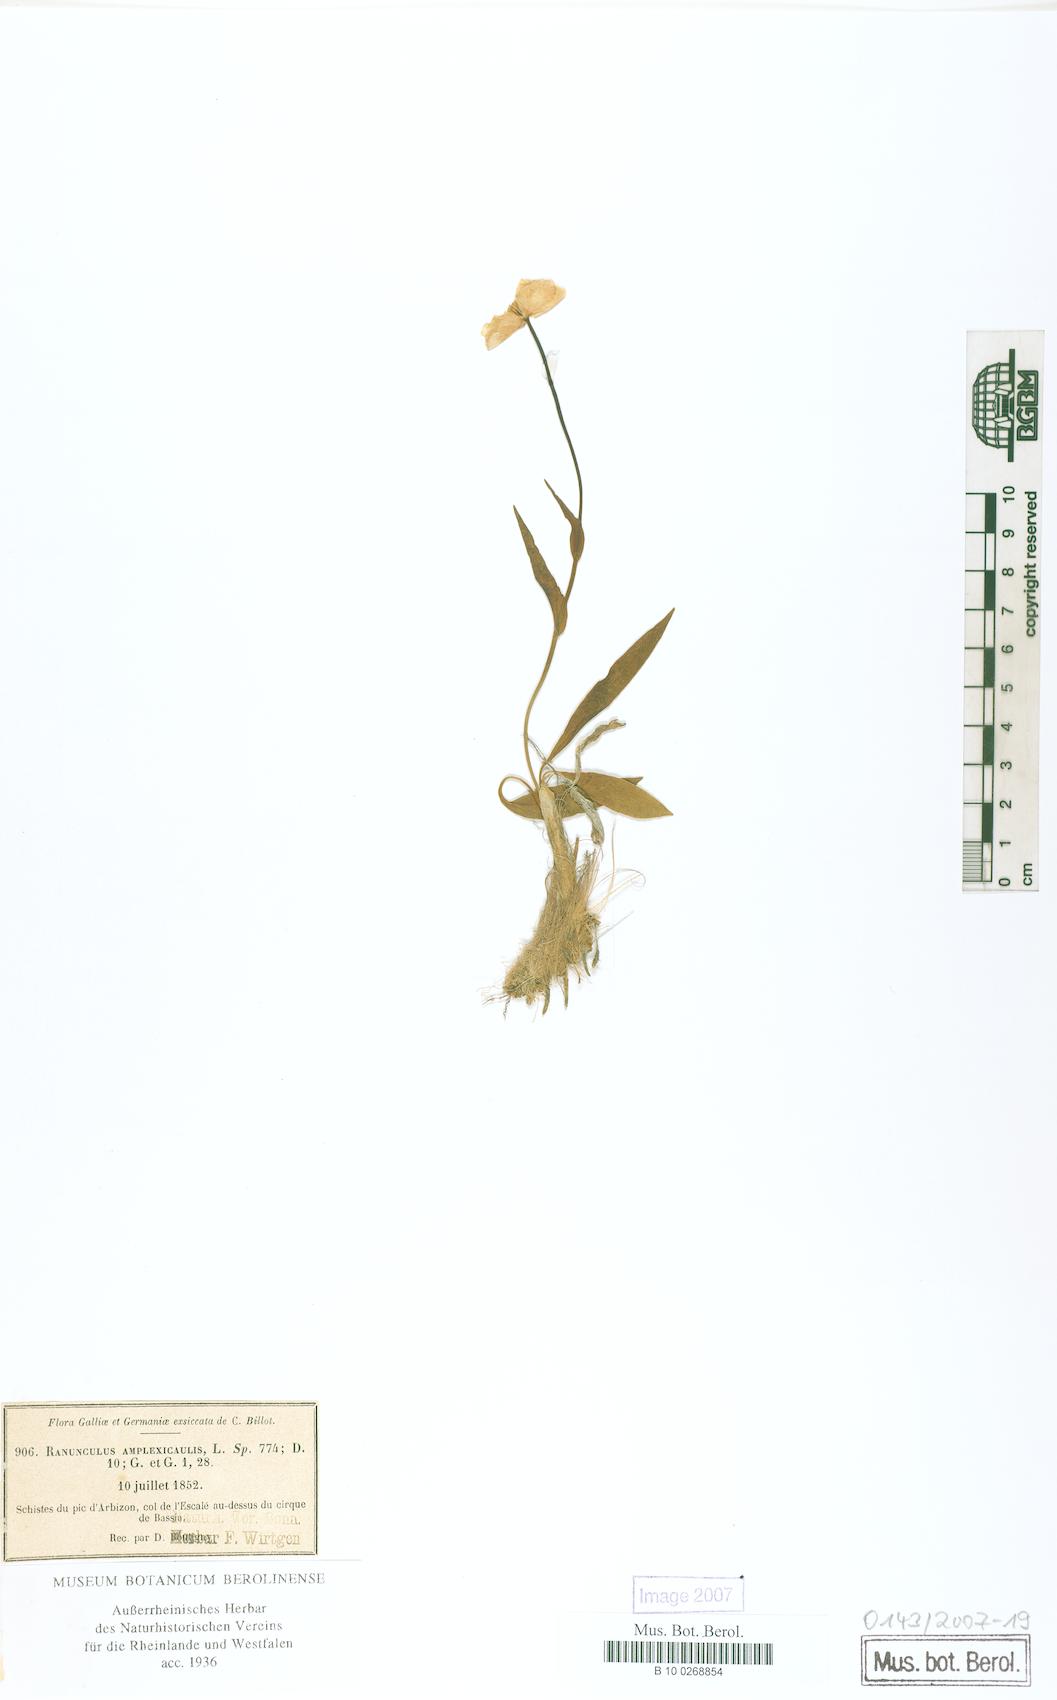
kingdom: Plantae
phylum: Tracheophyta
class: Magnoliopsida
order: Ranunculales
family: Ranunculaceae
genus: Ranunculus
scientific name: Ranunculus amplexicaulis
